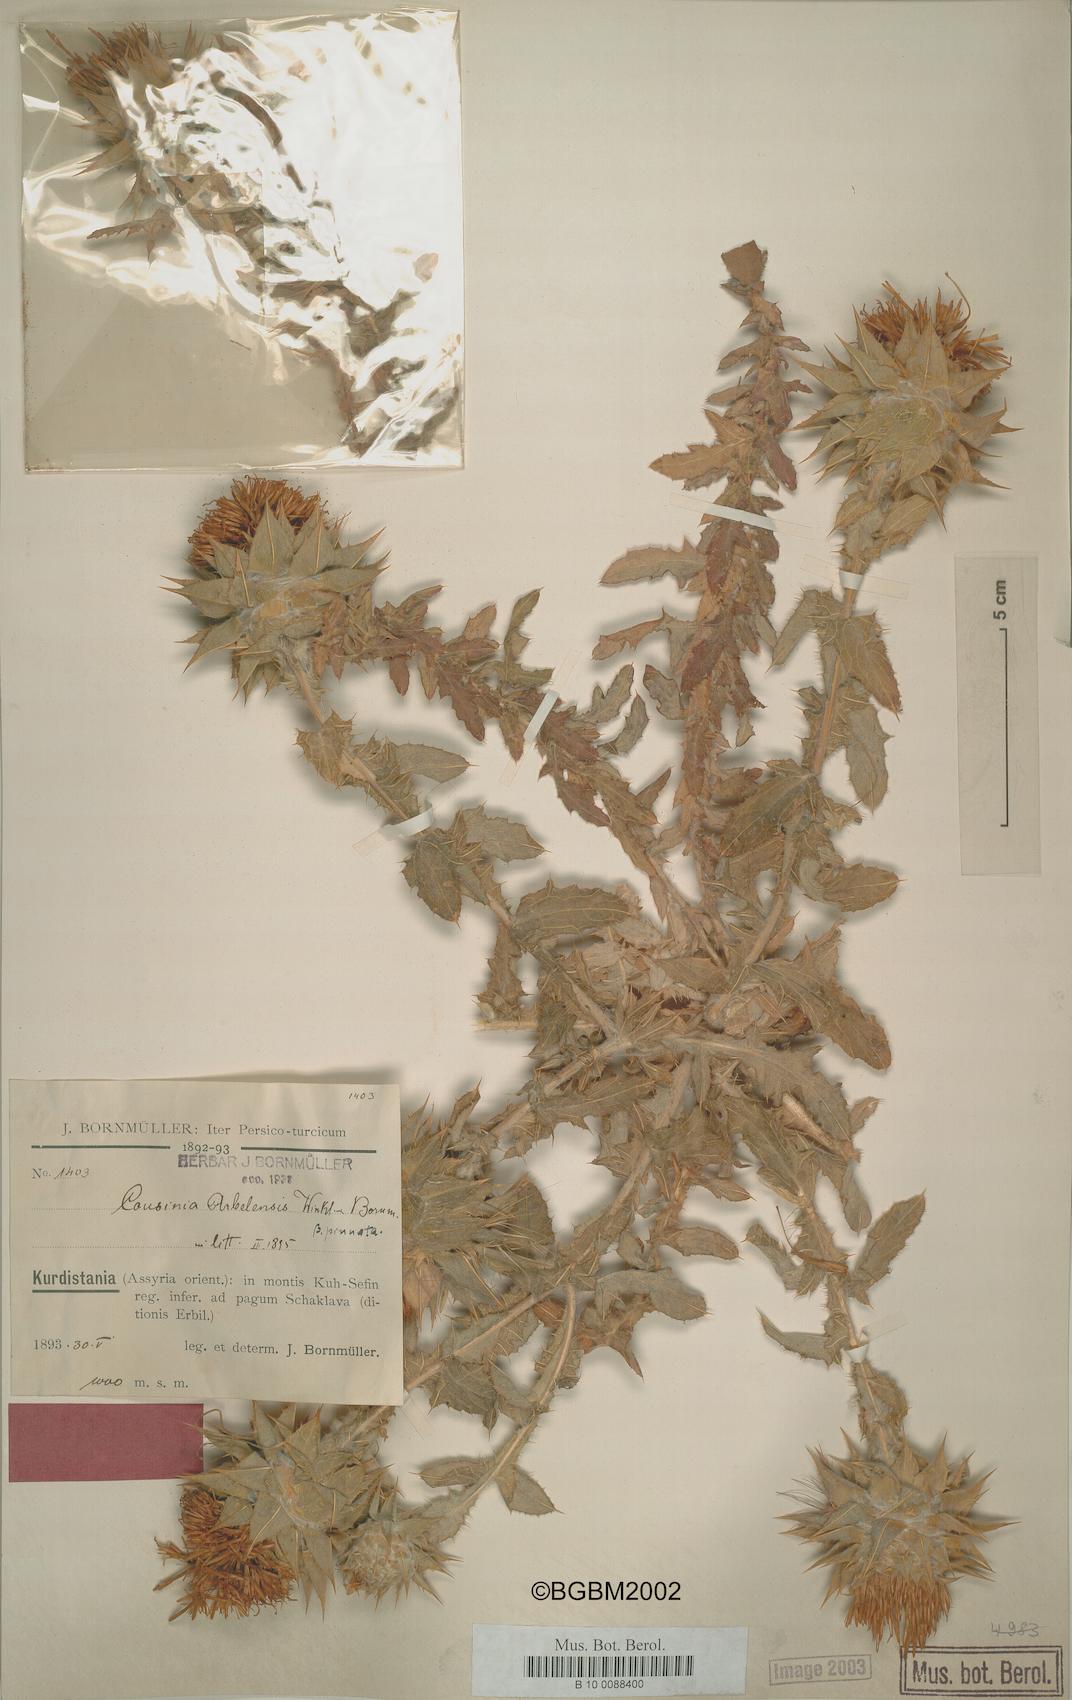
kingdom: Plantae
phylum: Tracheophyta
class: Magnoliopsida
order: Asterales
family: Asteraceae
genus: Cousinia
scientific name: Cousinia aintabensis
